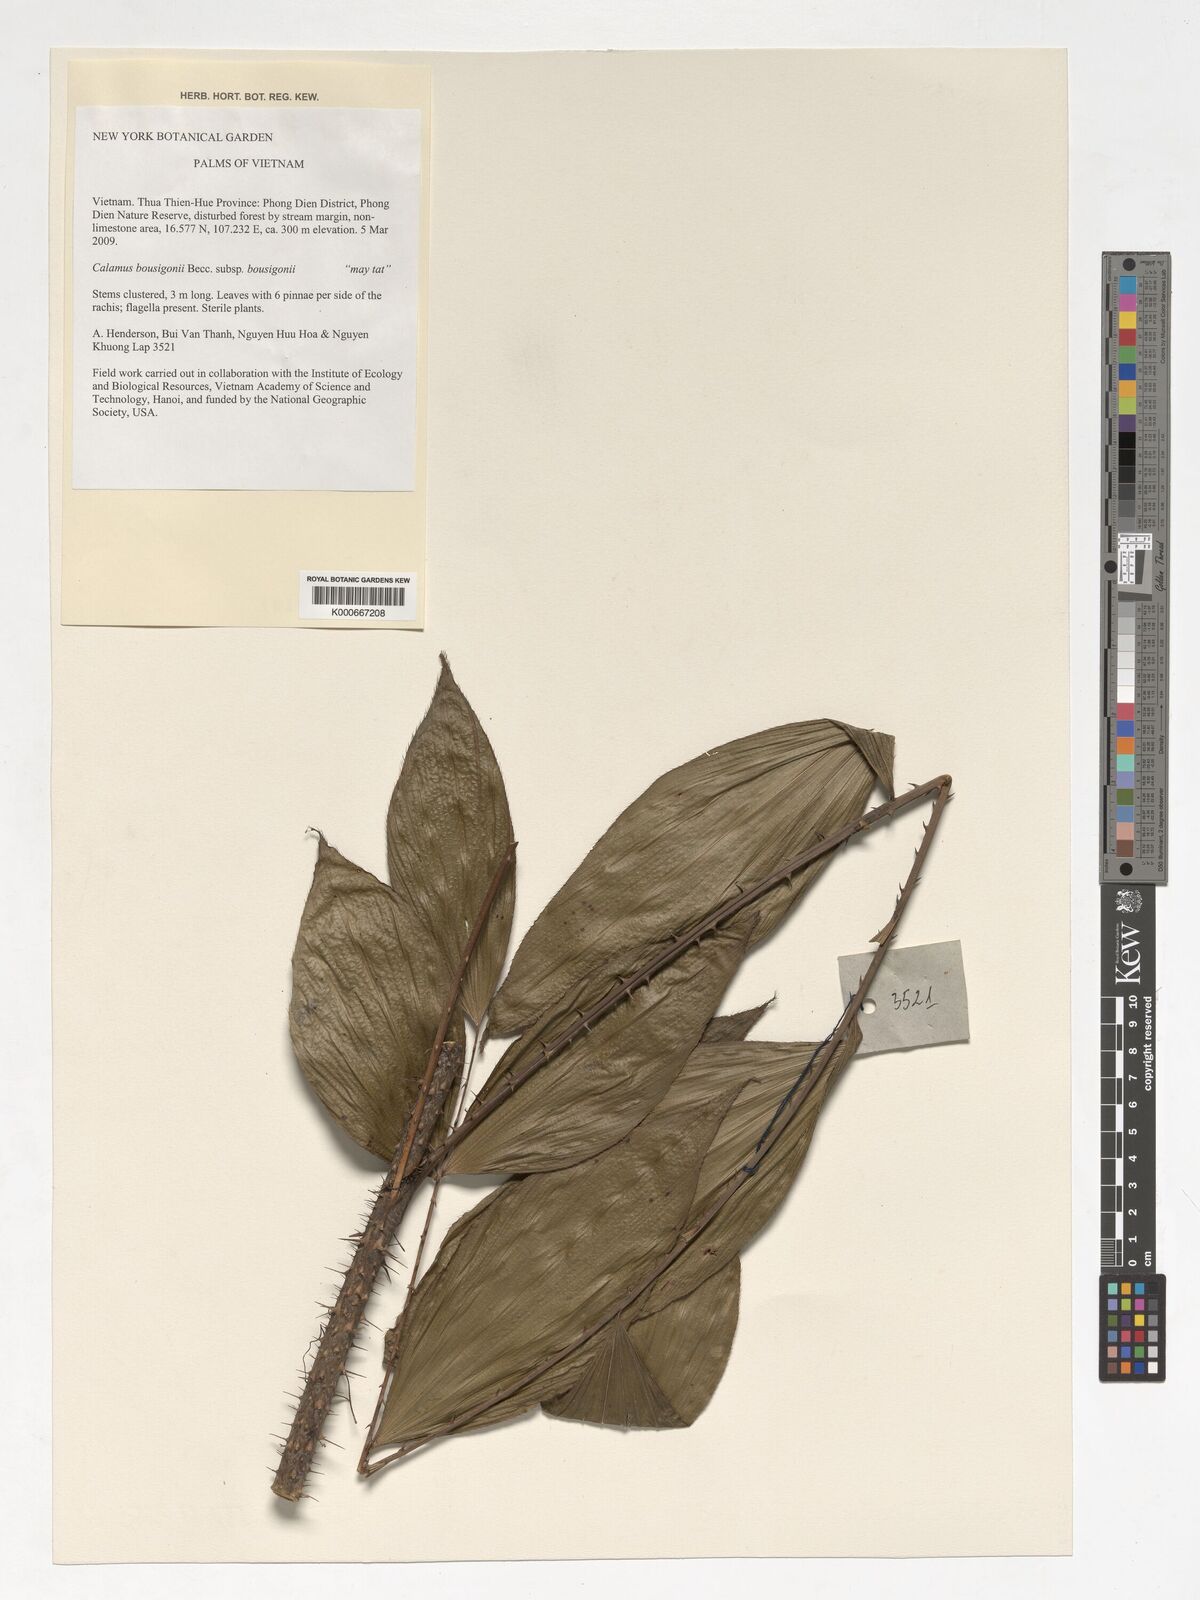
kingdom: Plantae
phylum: Tracheophyta
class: Liliopsida
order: Arecales
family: Arecaceae
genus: Calamus
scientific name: Calamus bousigonii
